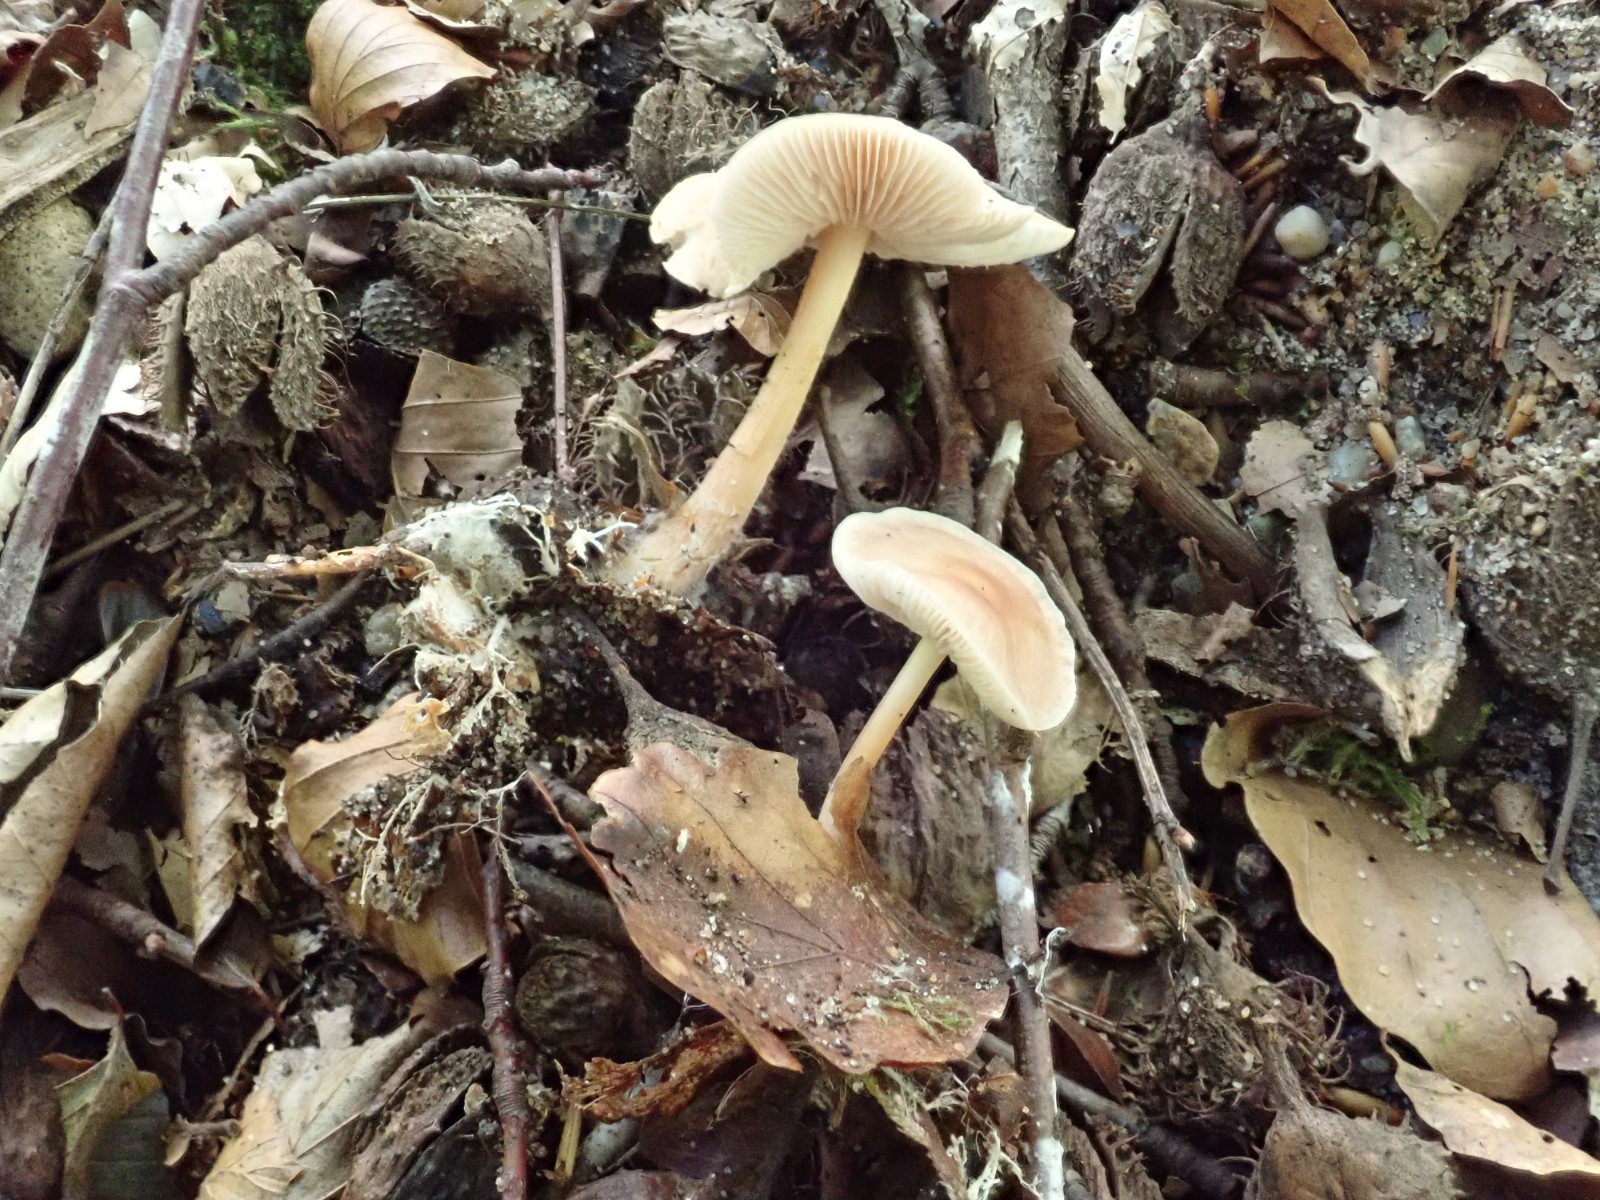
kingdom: Fungi
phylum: Basidiomycota
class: Agaricomycetes
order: Agaricales
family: Omphalotaceae
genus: Gymnopus
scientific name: Gymnopus aquosus
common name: bleg fladhat
